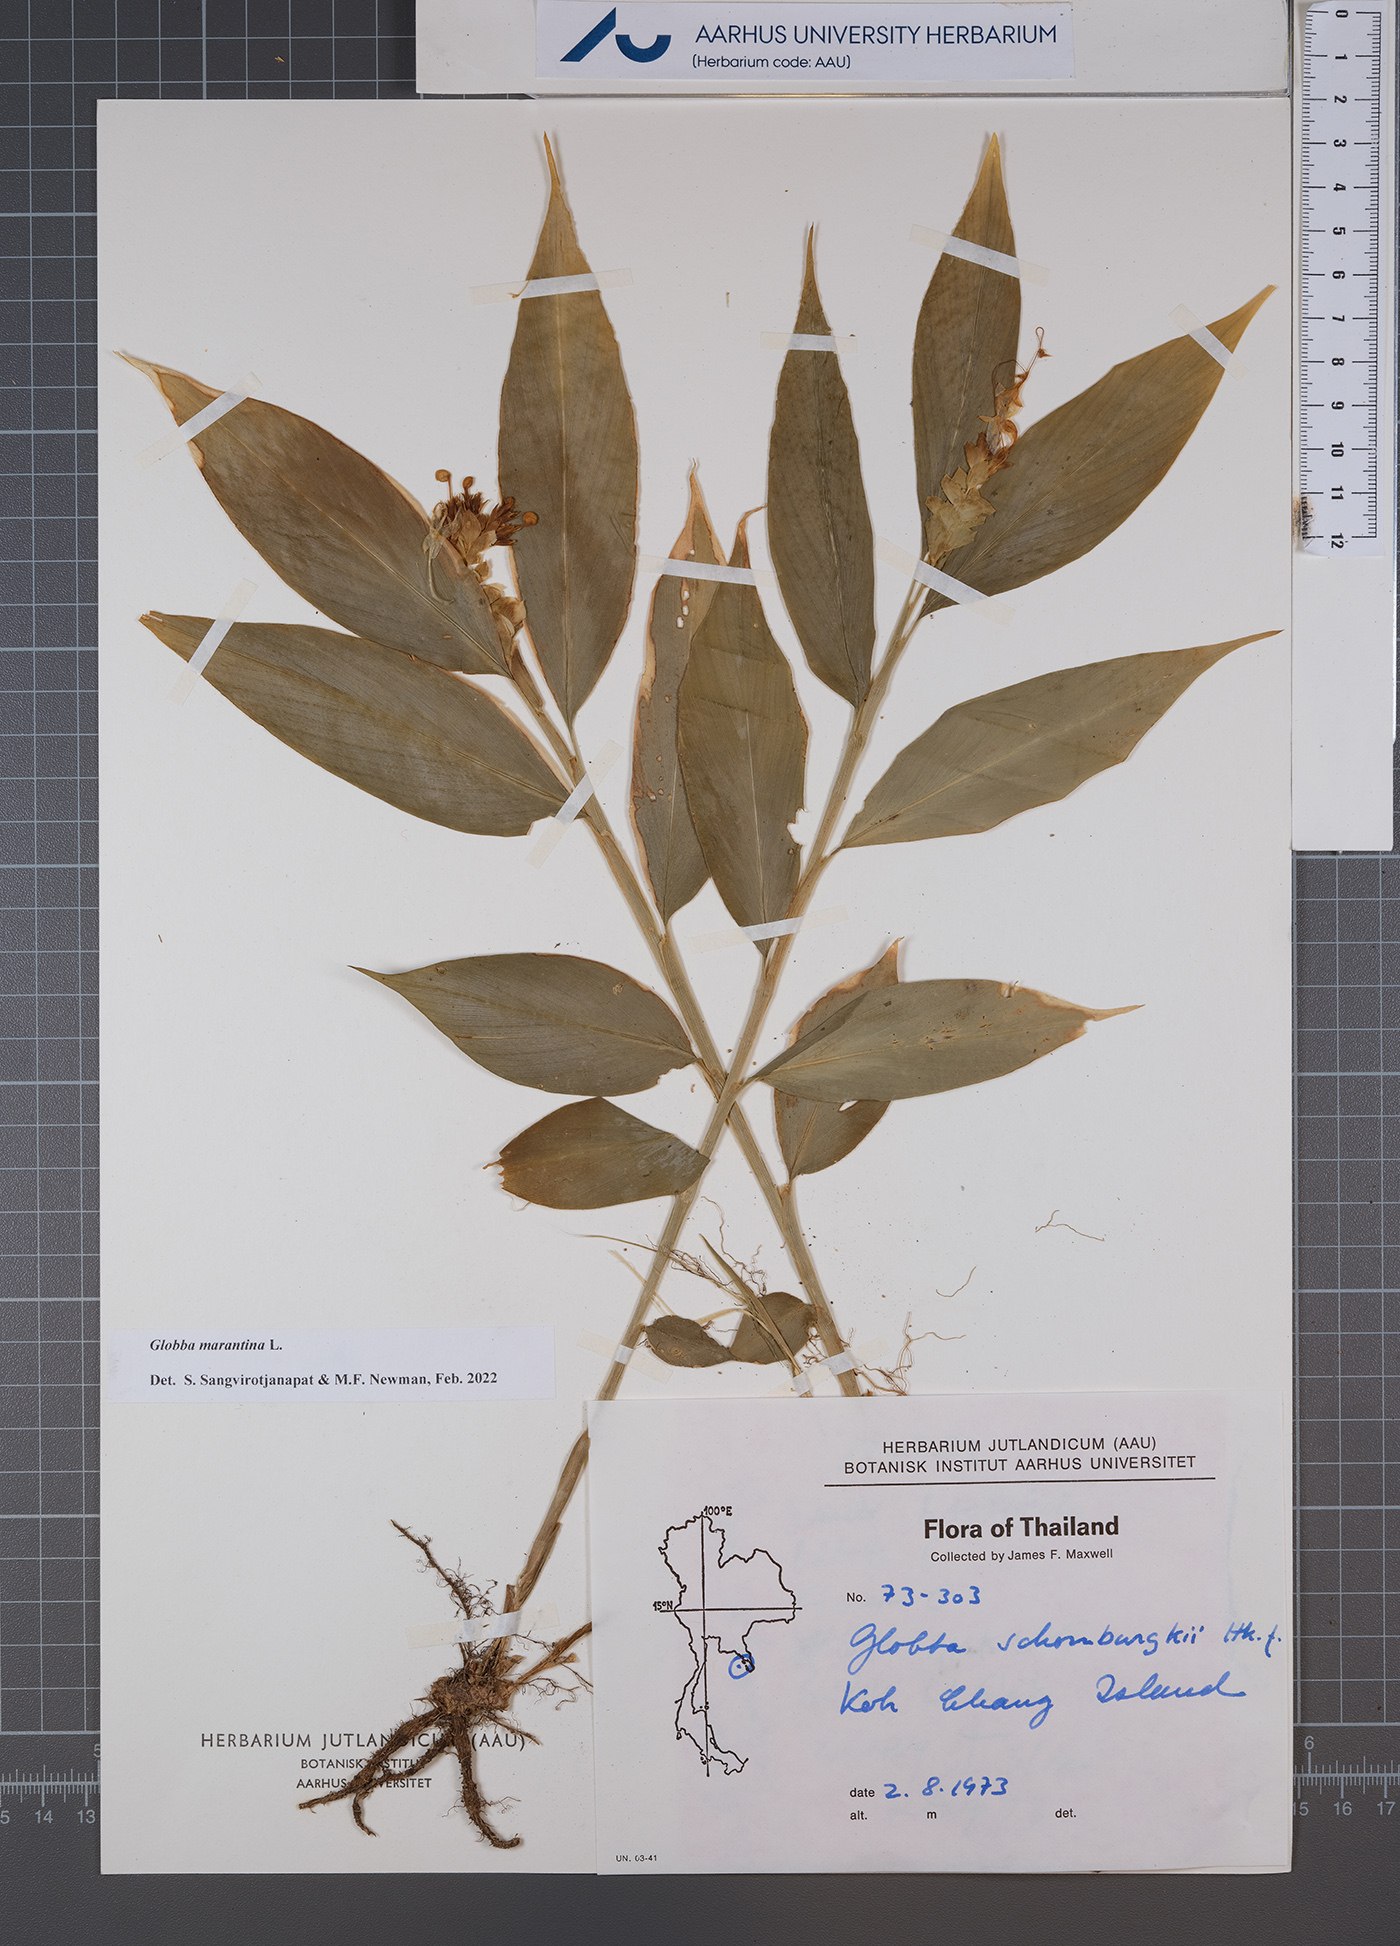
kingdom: Plantae
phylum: Tracheophyta
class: Liliopsida
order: Zingiberales
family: Zingiberaceae
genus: Globba
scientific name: Globba marantina
